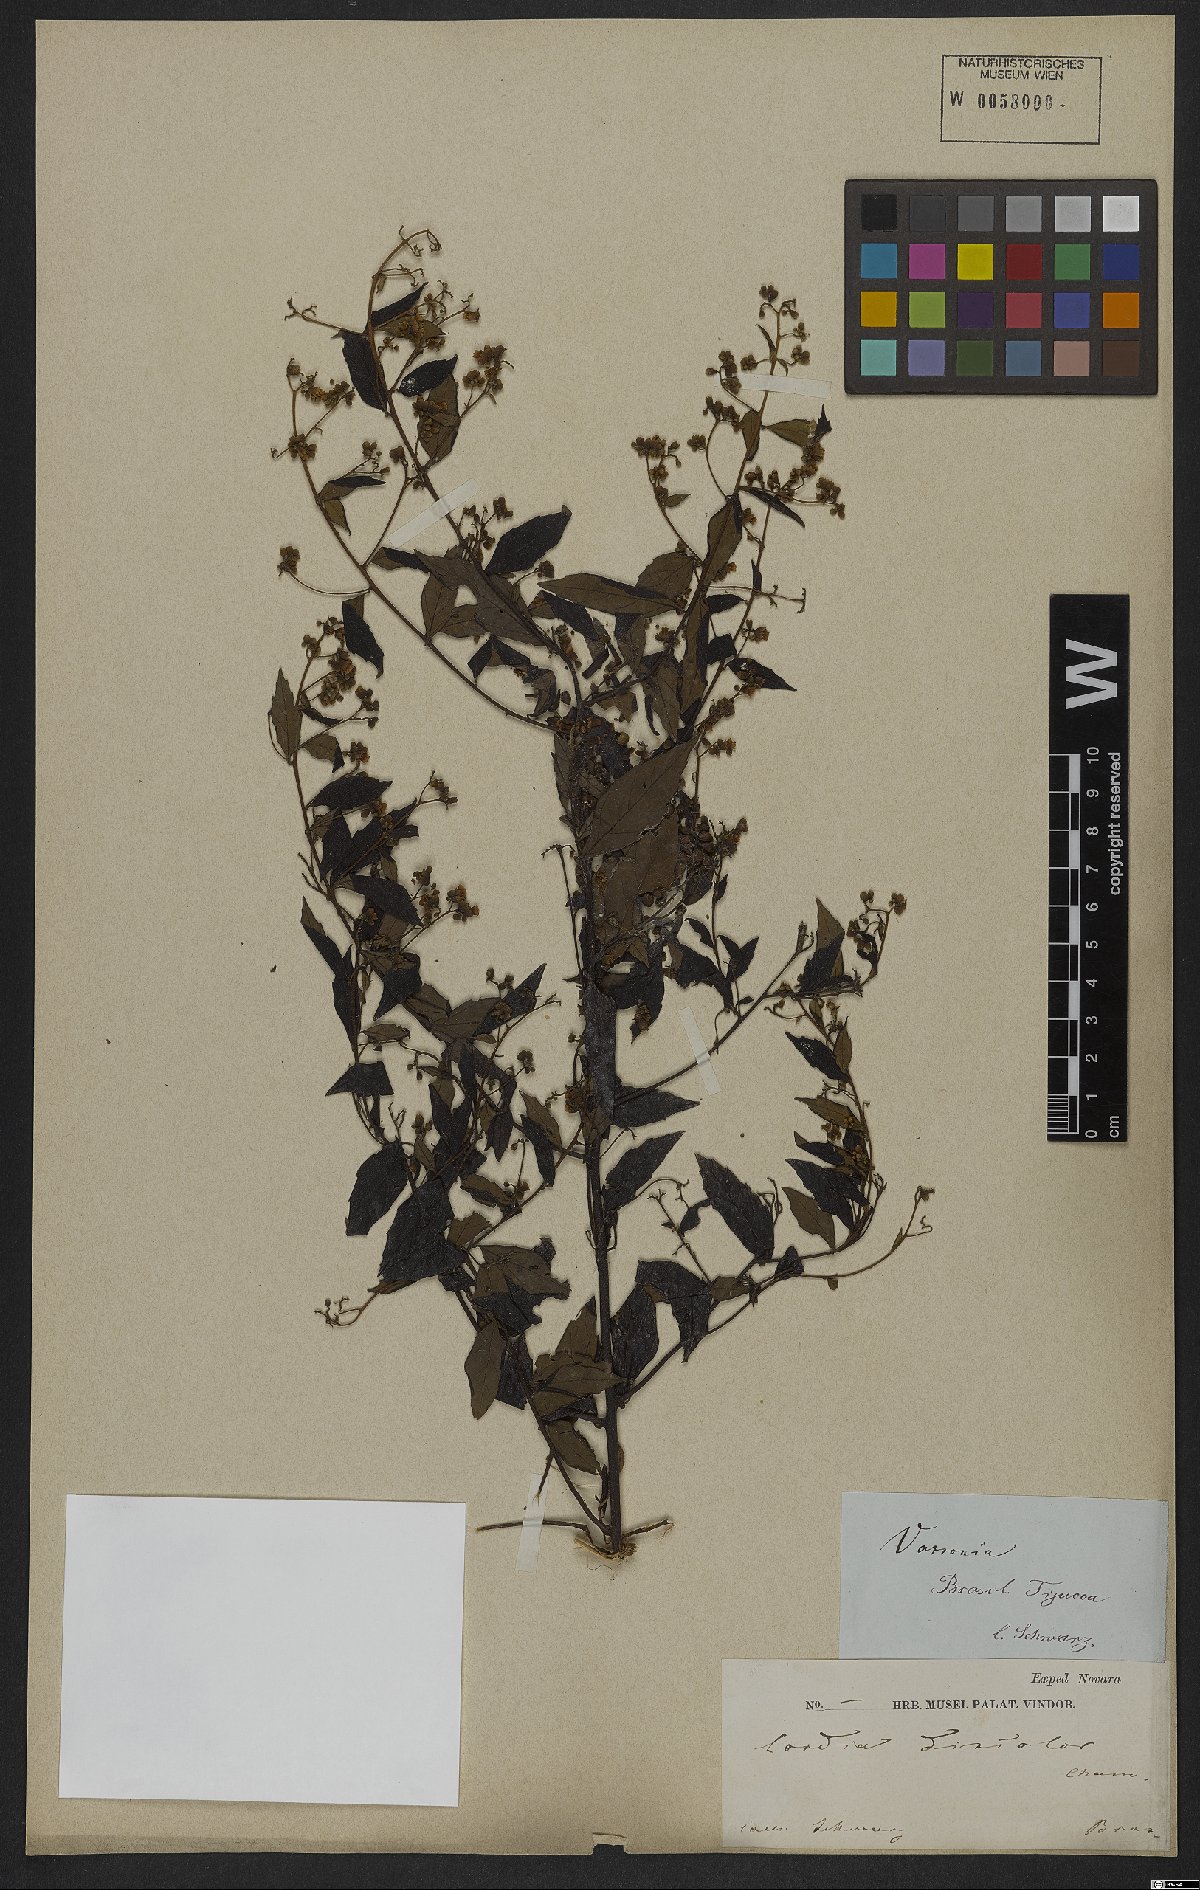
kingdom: Plantae
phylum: Tracheophyta
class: Magnoliopsida
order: Boraginales
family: Cordiaceae
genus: Varronia
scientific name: Varronia discolor
